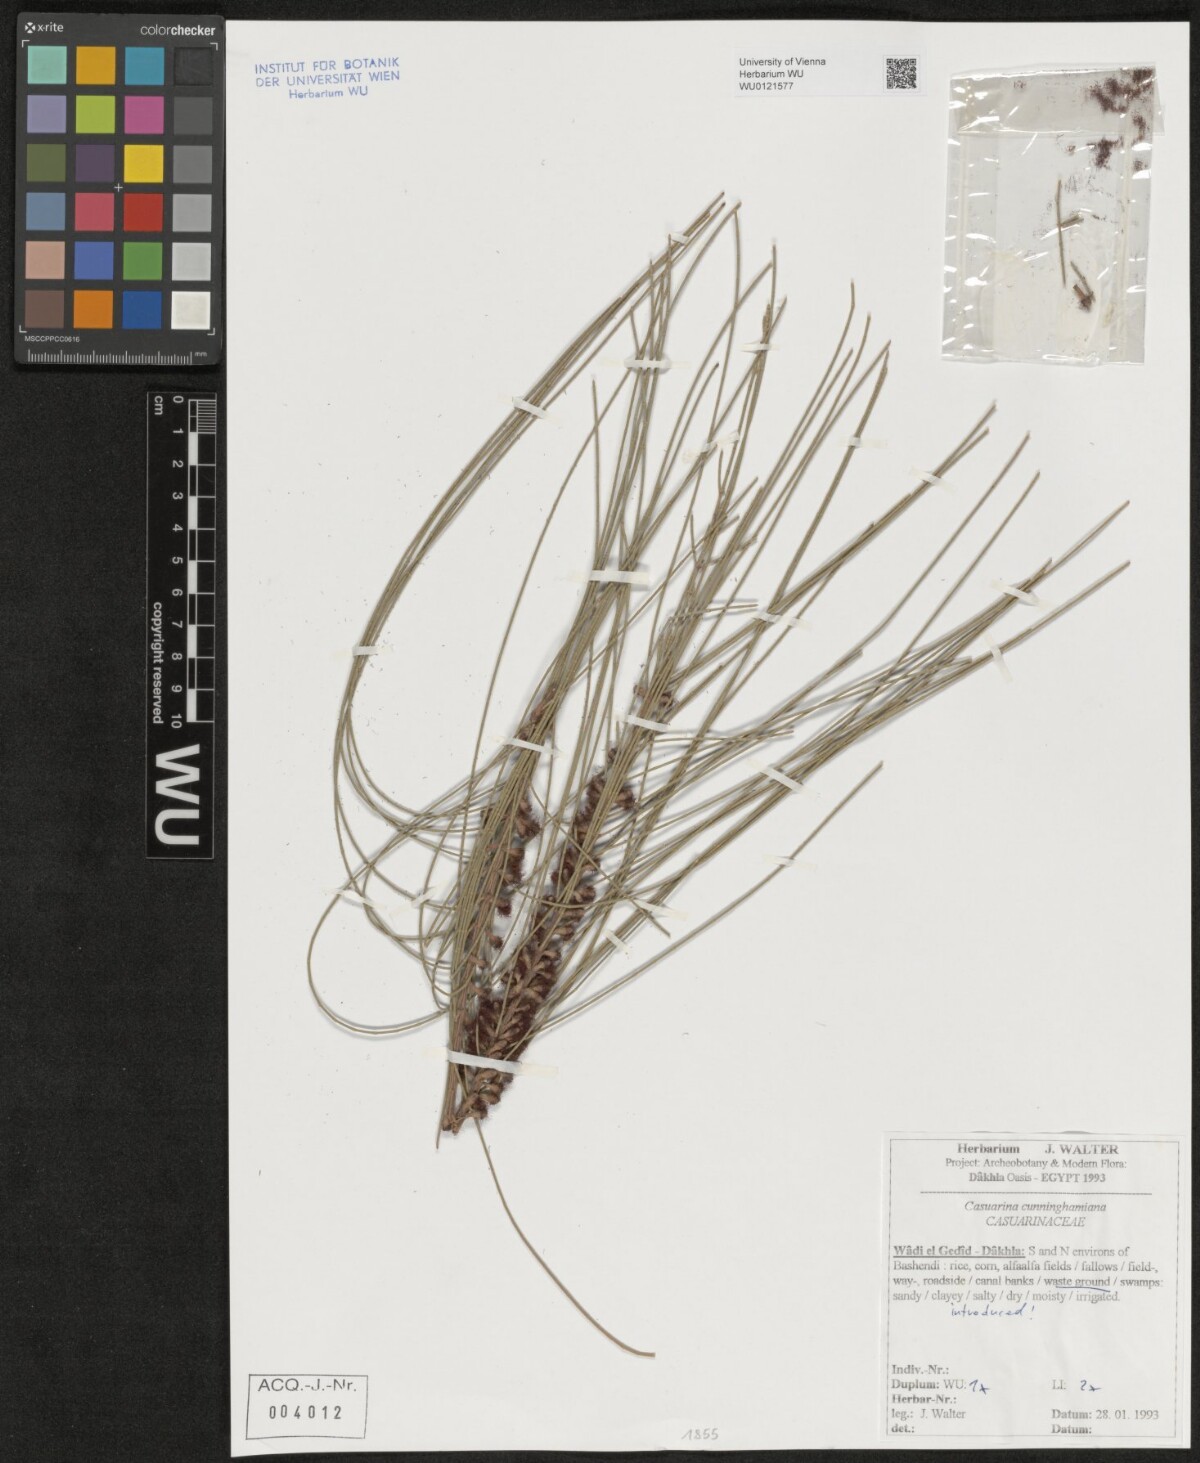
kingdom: Plantae
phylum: Tracheophyta
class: Magnoliopsida
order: Fagales
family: Casuarinaceae
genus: Casuarina
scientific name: Casuarina cunninghamiana
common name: River sheoak
